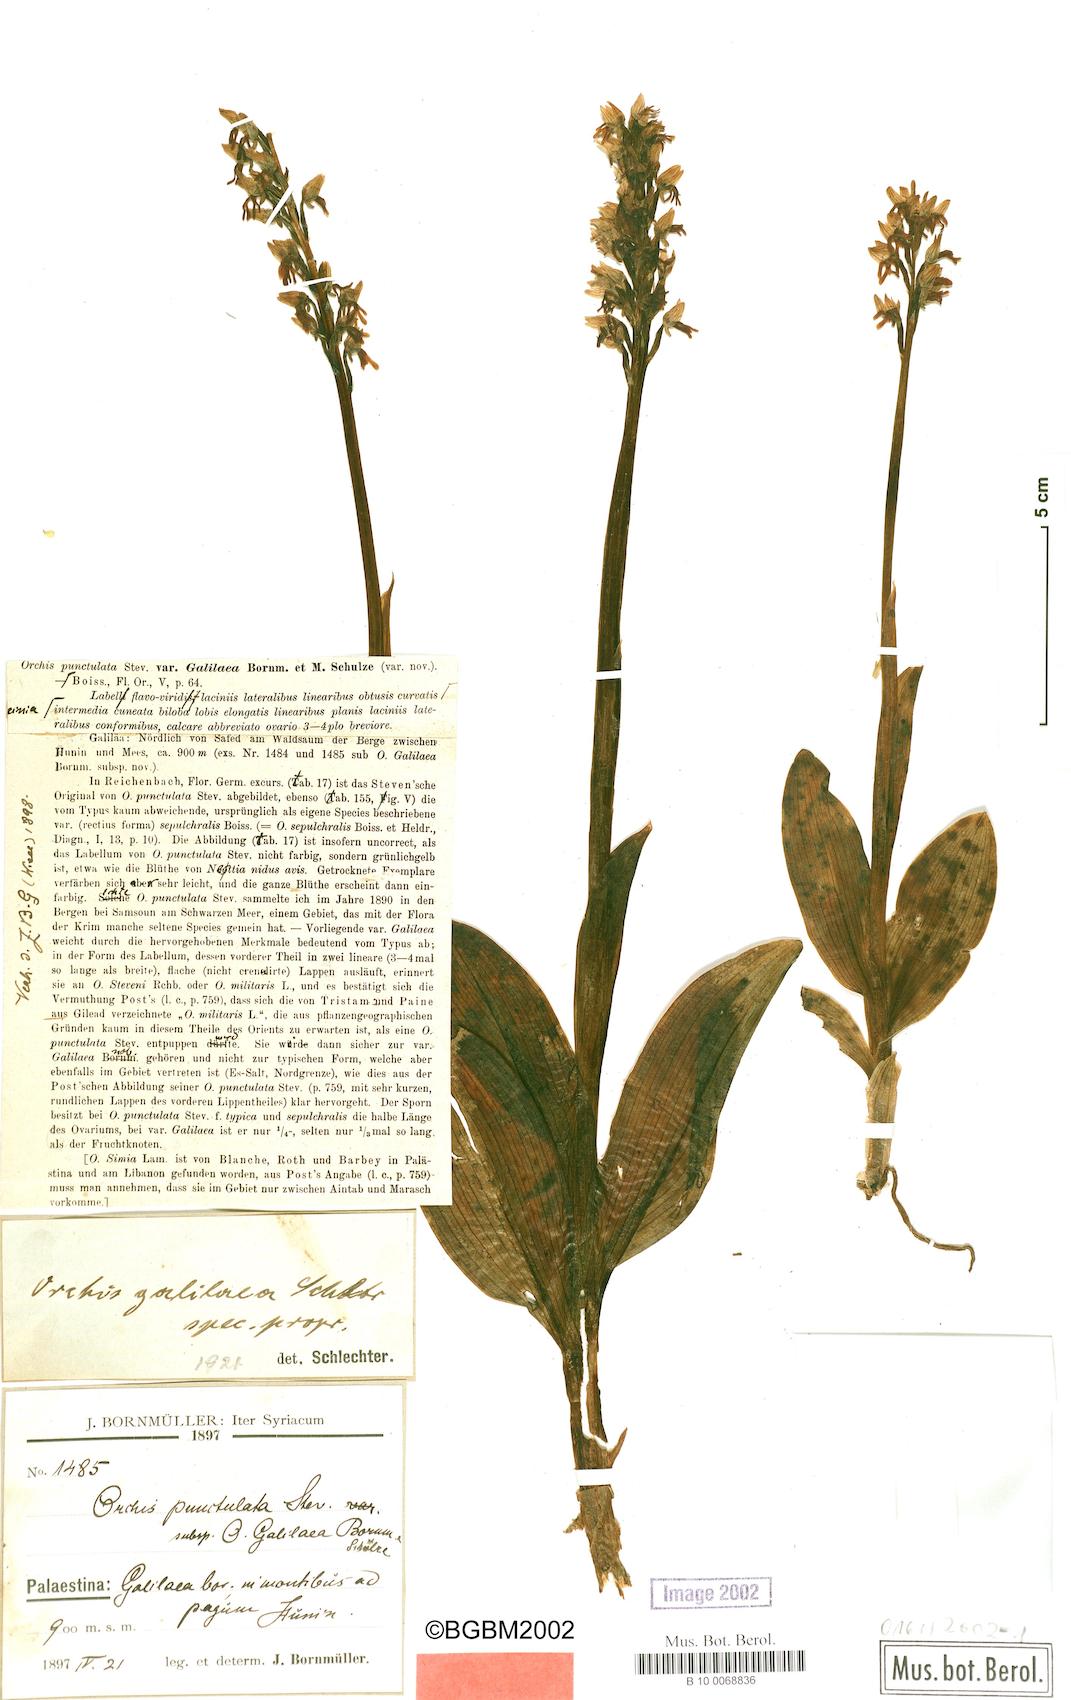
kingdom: Plantae
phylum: Tracheophyta
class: Liliopsida
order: Asparagales
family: Orchidaceae
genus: Orchis
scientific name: Orchis galilaea
